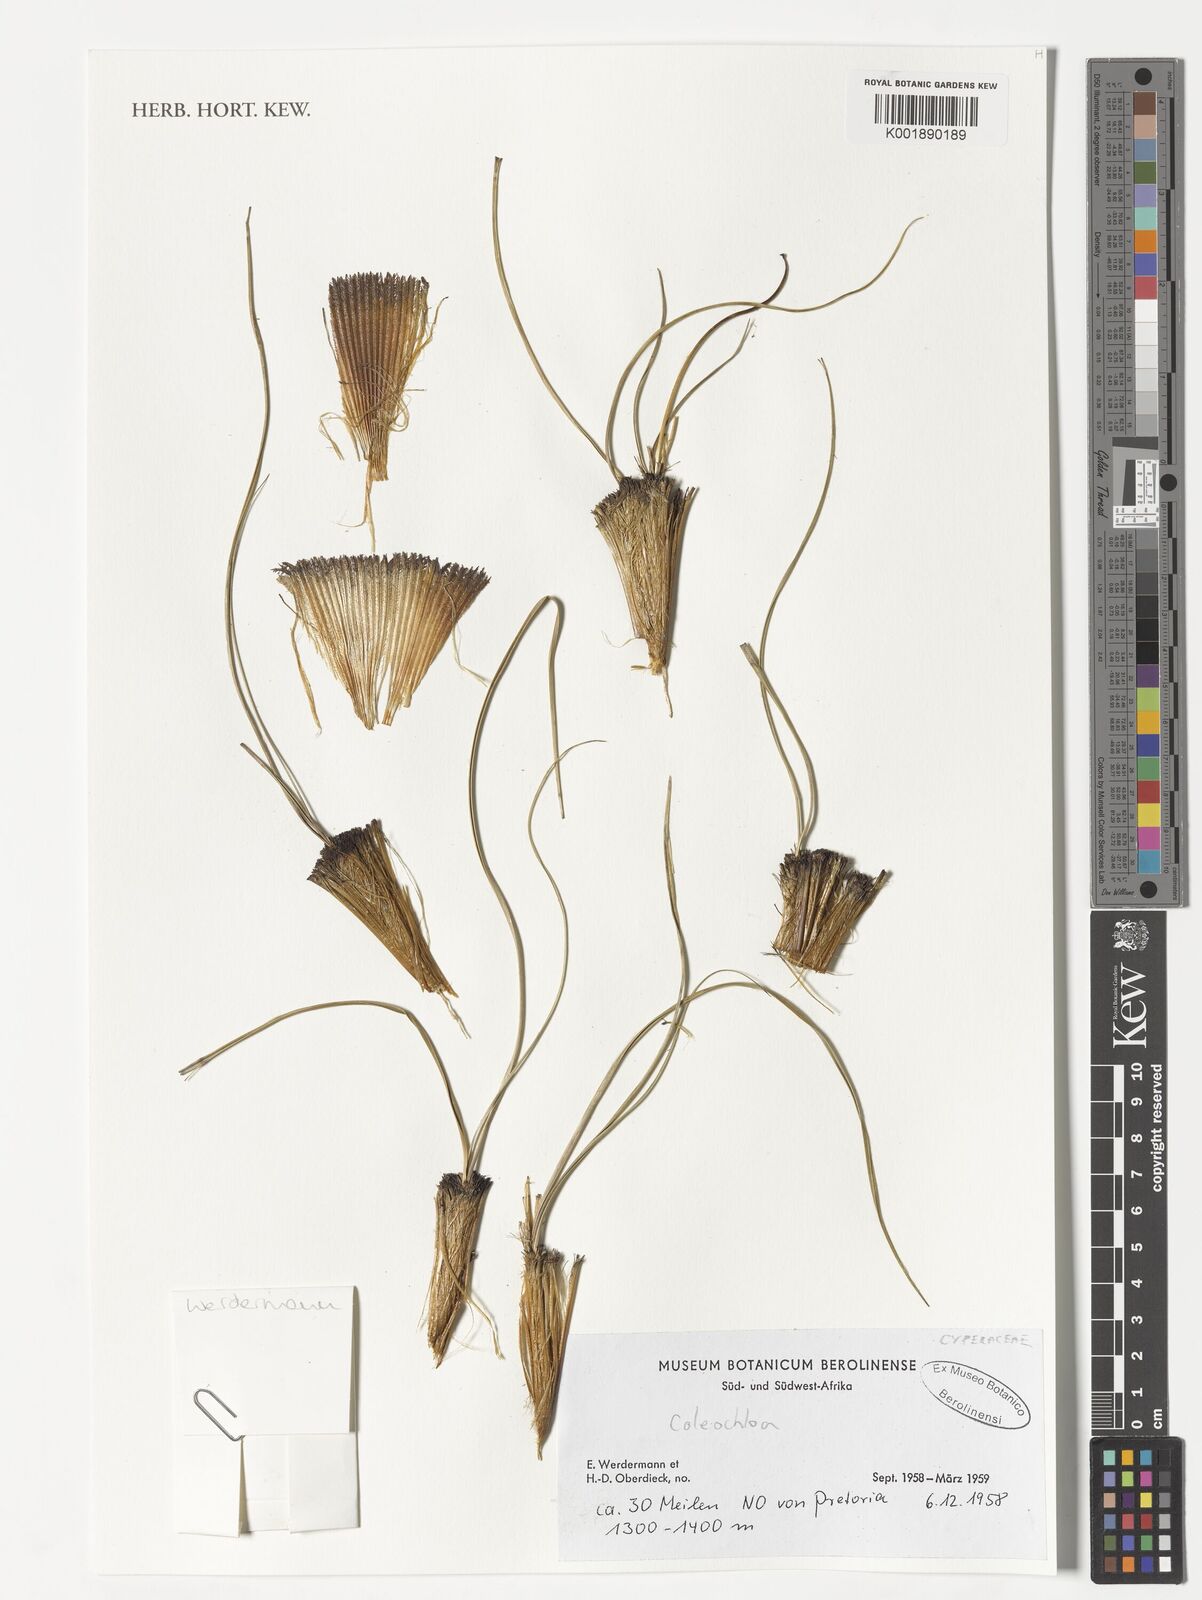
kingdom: Plantae
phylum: Tracheophyta
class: Liliopsida
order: Poales
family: Cyperaceae
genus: Coleochloa
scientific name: Coleochloa
